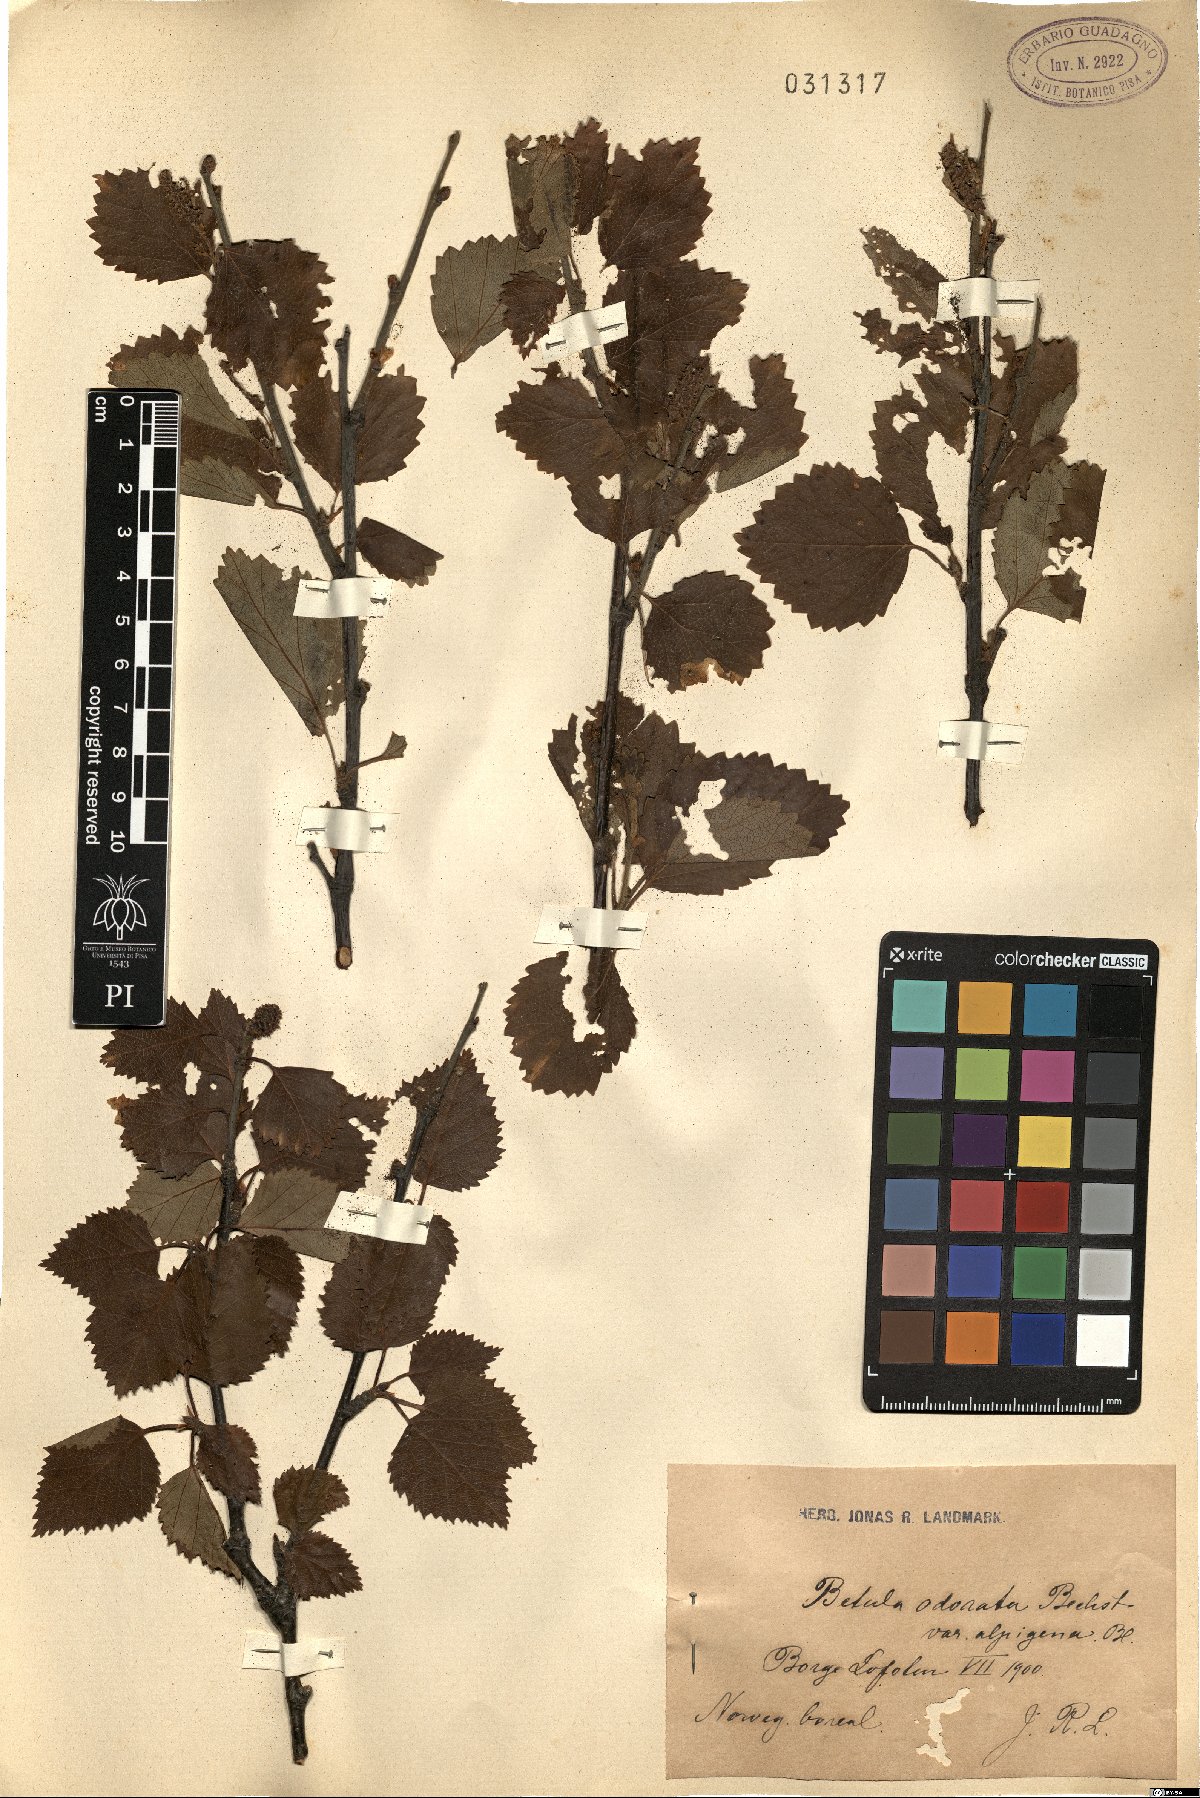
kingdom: Plantae
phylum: Tracheophyta
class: Magnoliopsida
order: Fagales
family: Betulaceae
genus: Betula
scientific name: Betula pubescens
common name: Downy birch
